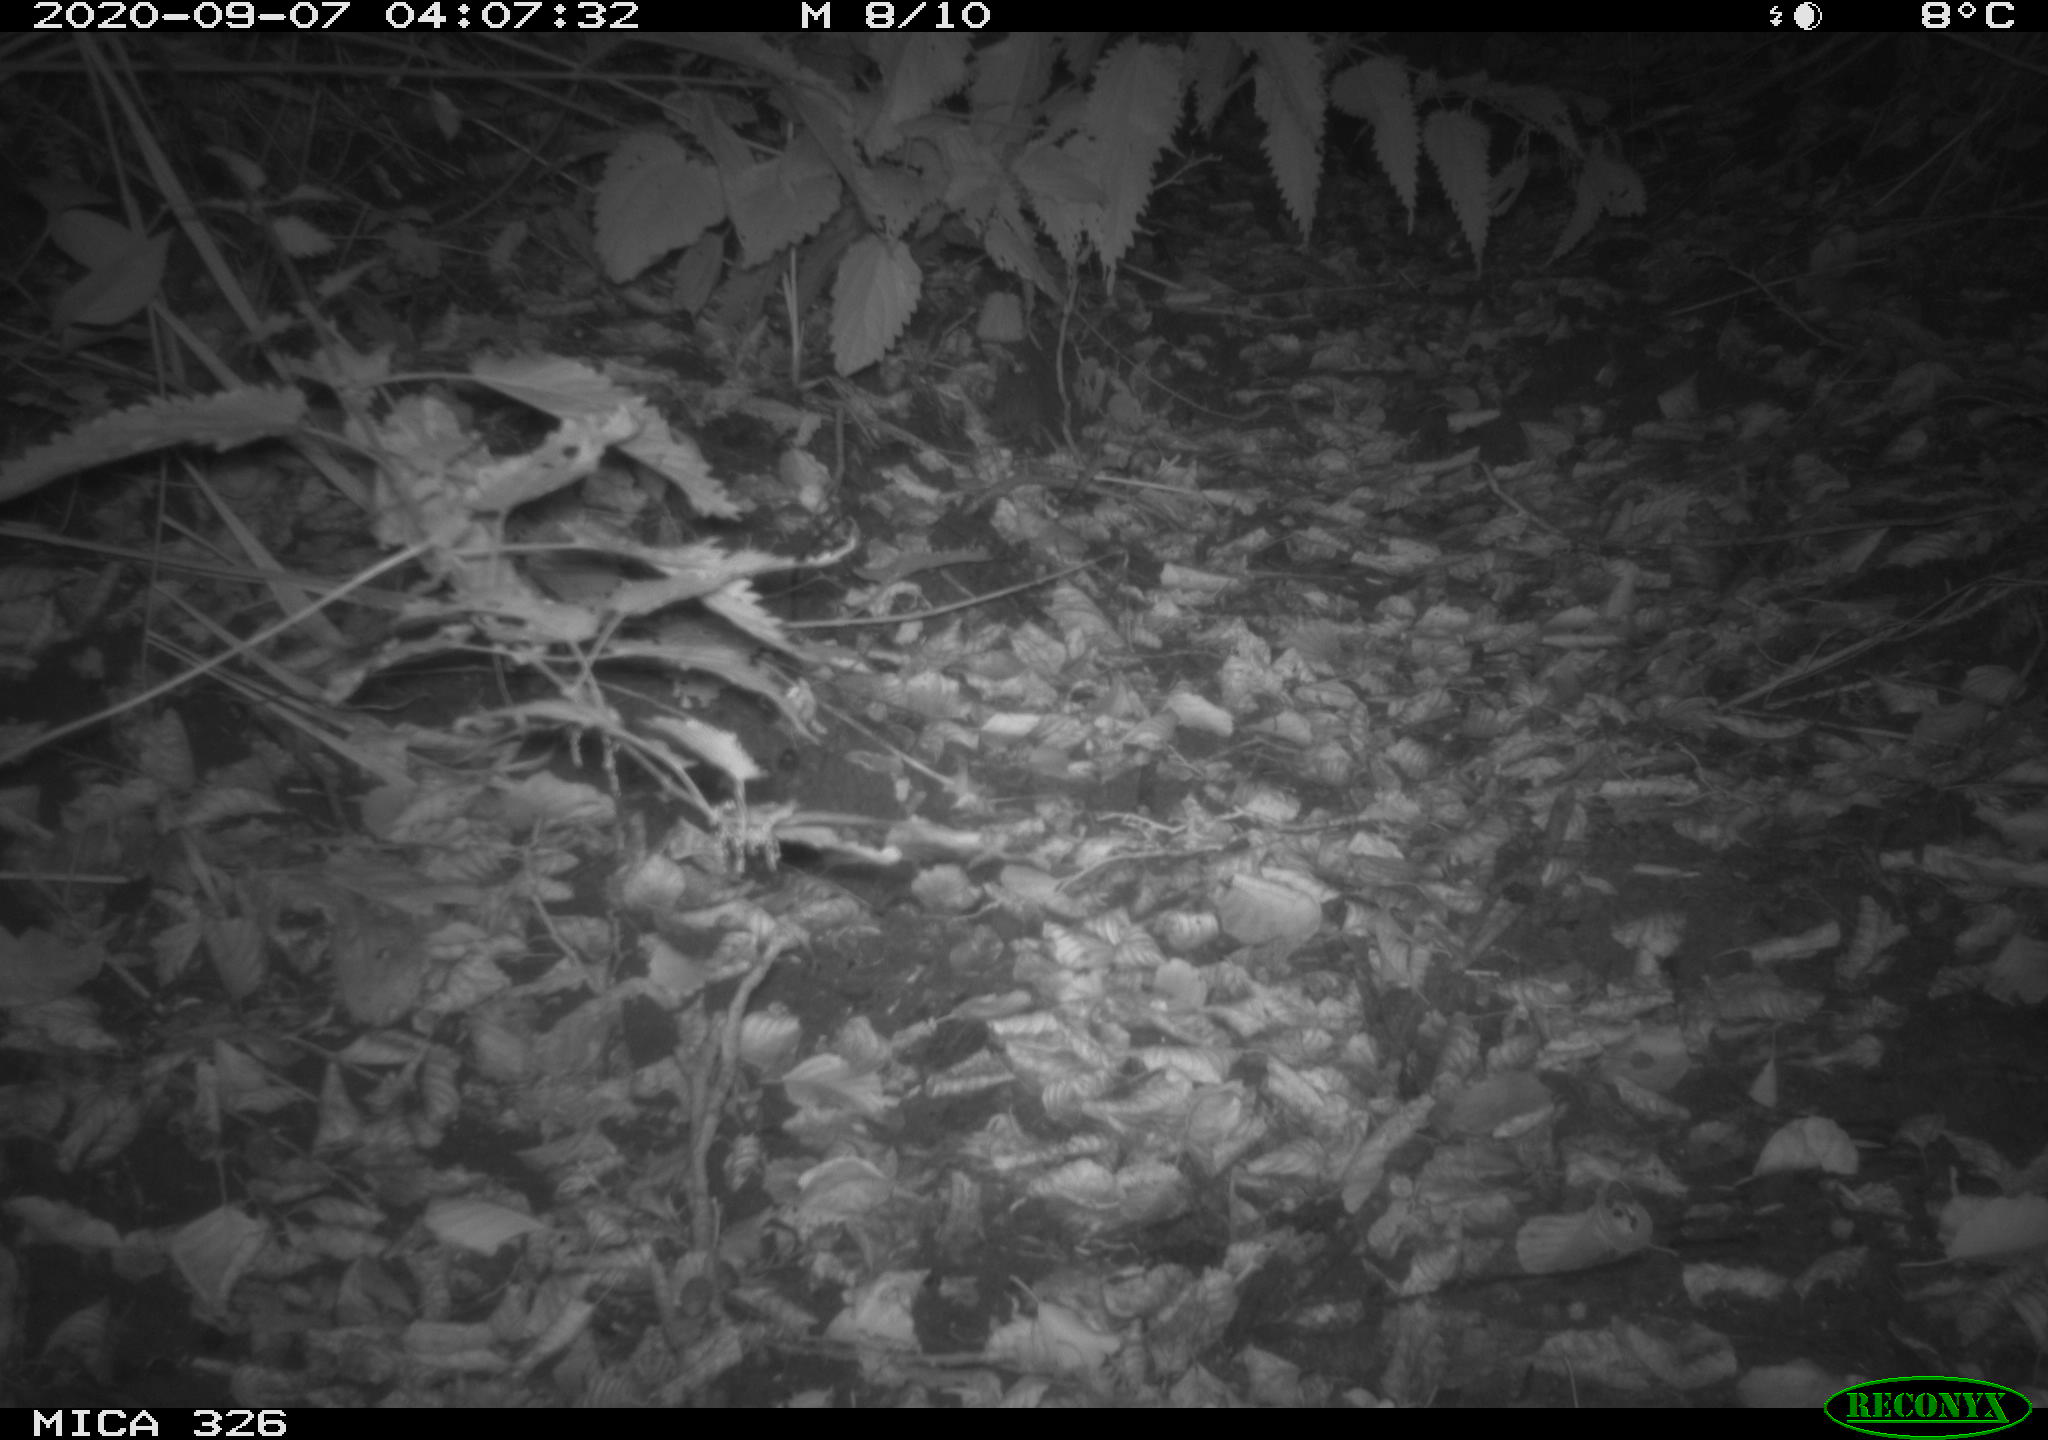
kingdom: Animalia
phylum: Chordata
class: Mammalia
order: Carnivora
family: Mustelidae
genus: Lutra
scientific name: Lutra lutra
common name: European otter
